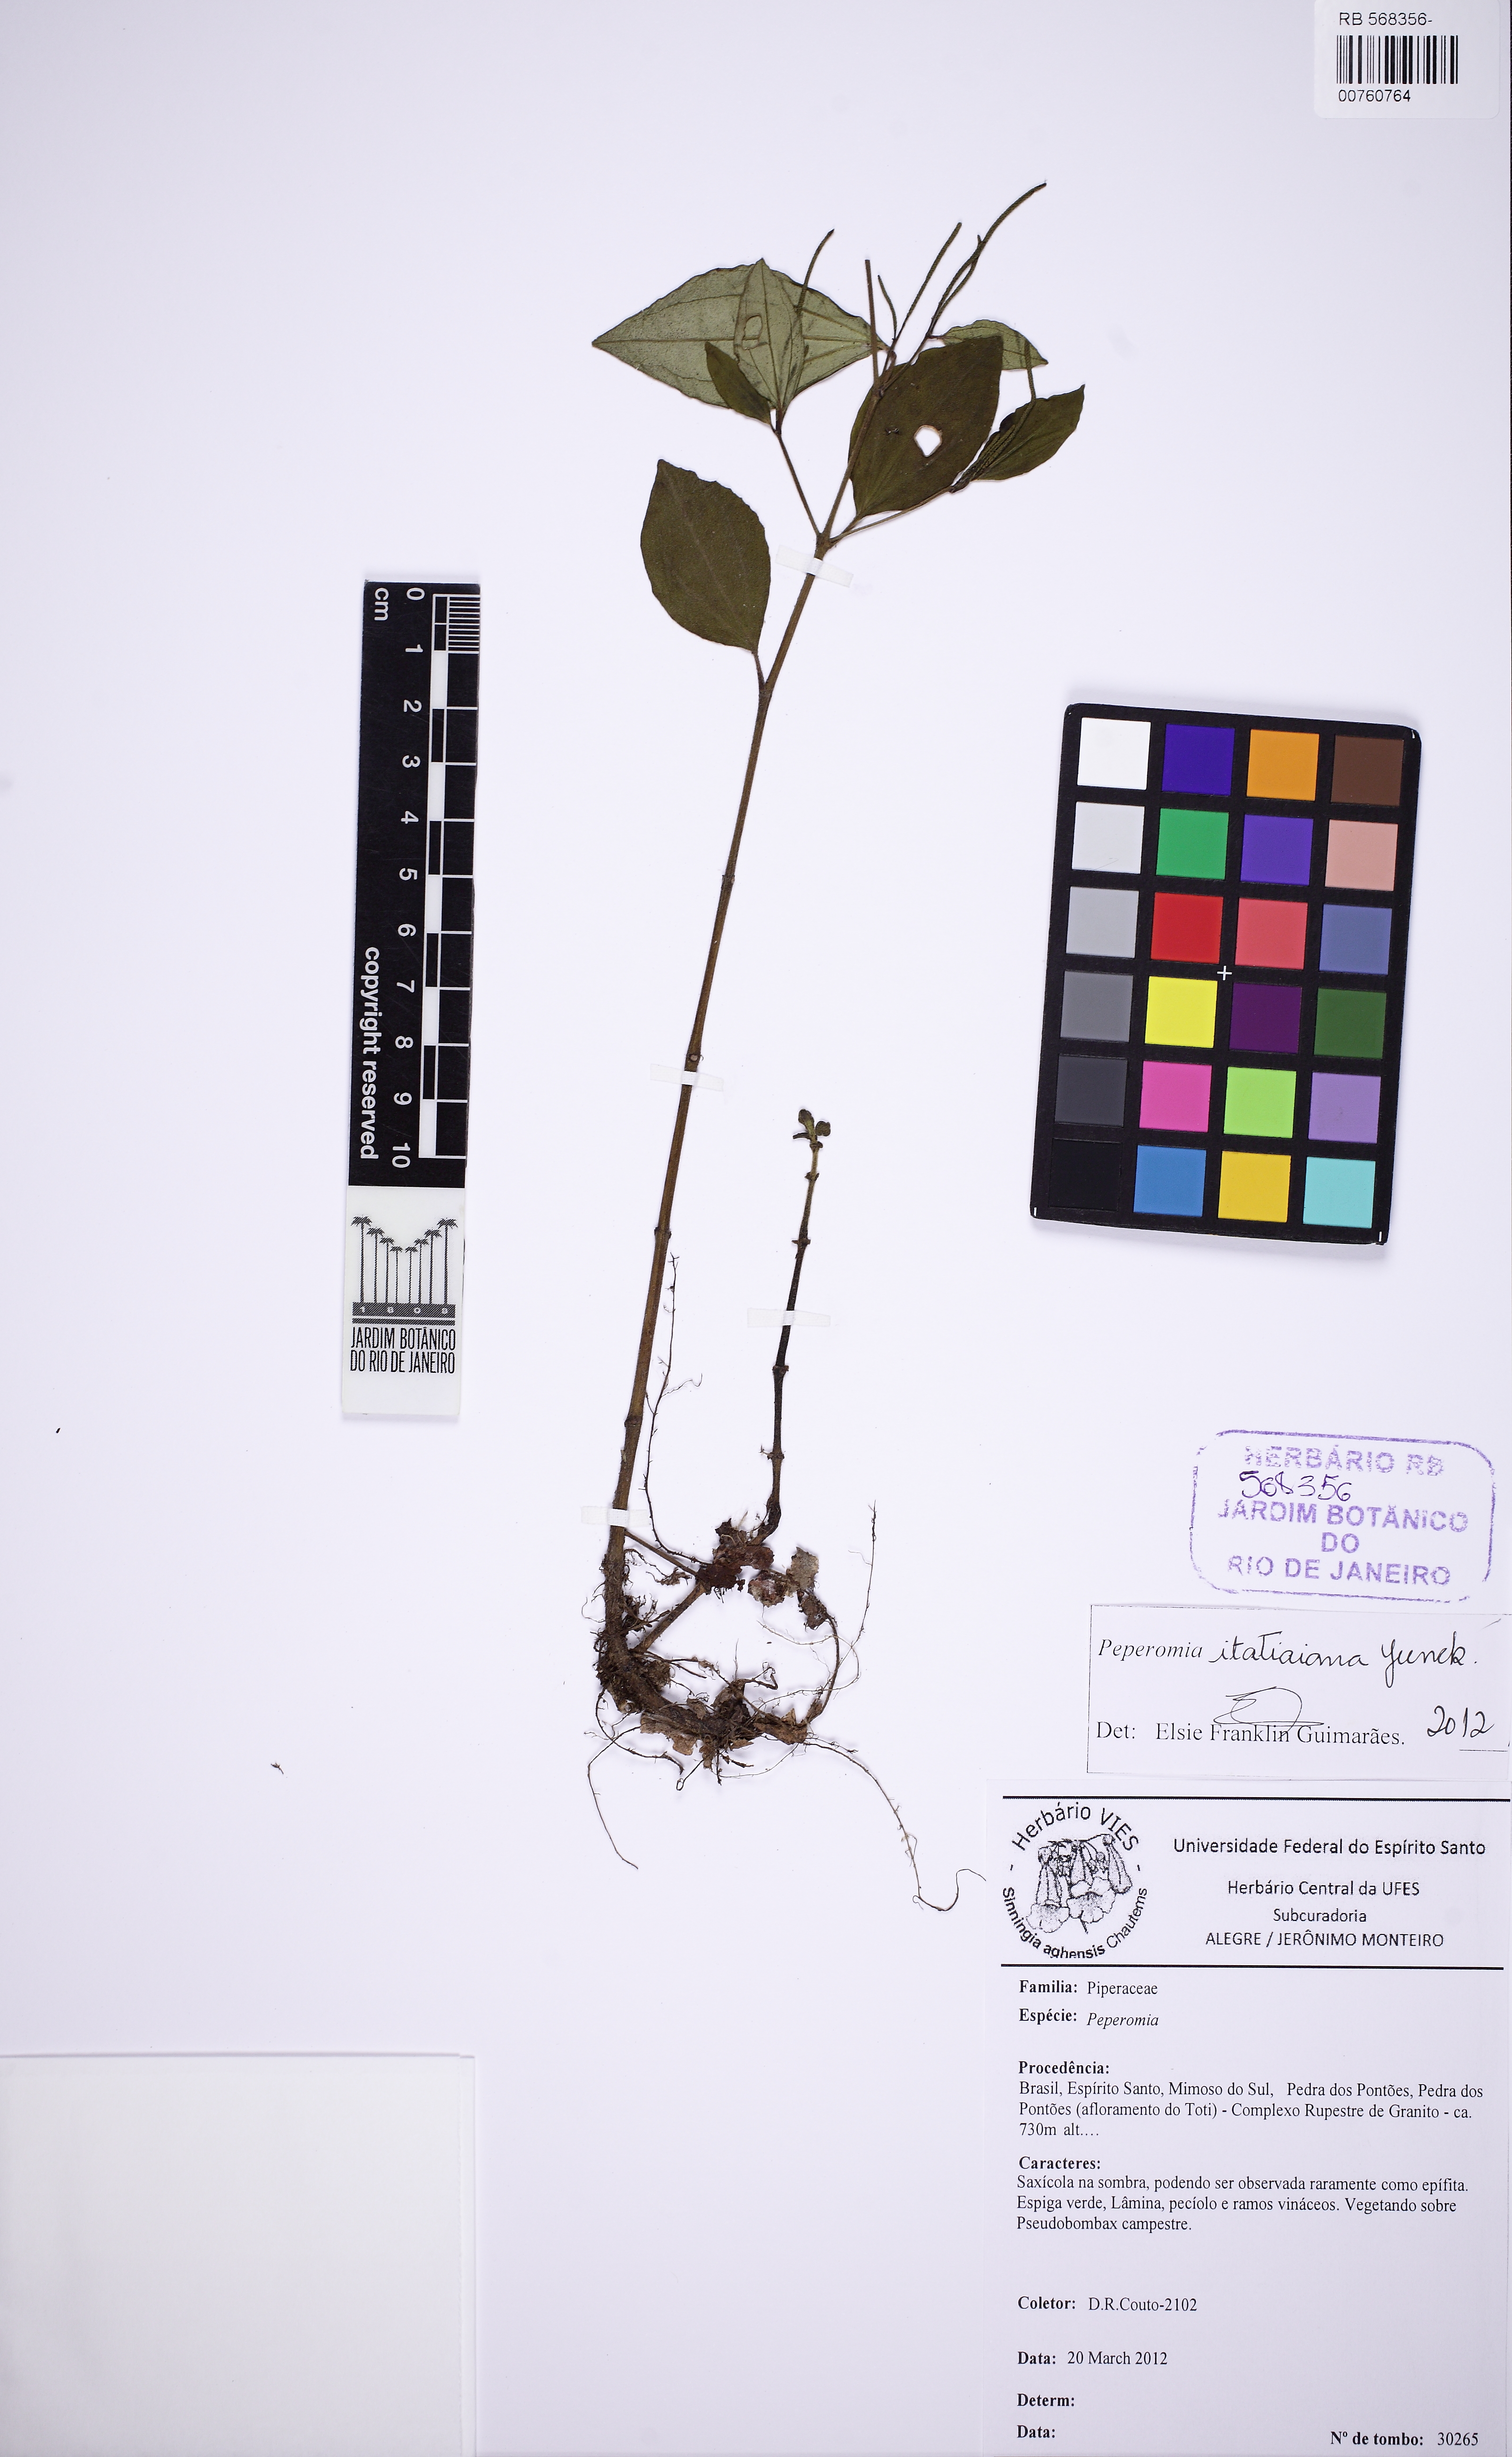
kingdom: Plantae
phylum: Tracheophyta
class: Magnoliopsida
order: Piperales
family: Piperaceae
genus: Peperomia
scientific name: Peperomia itatiaiana
